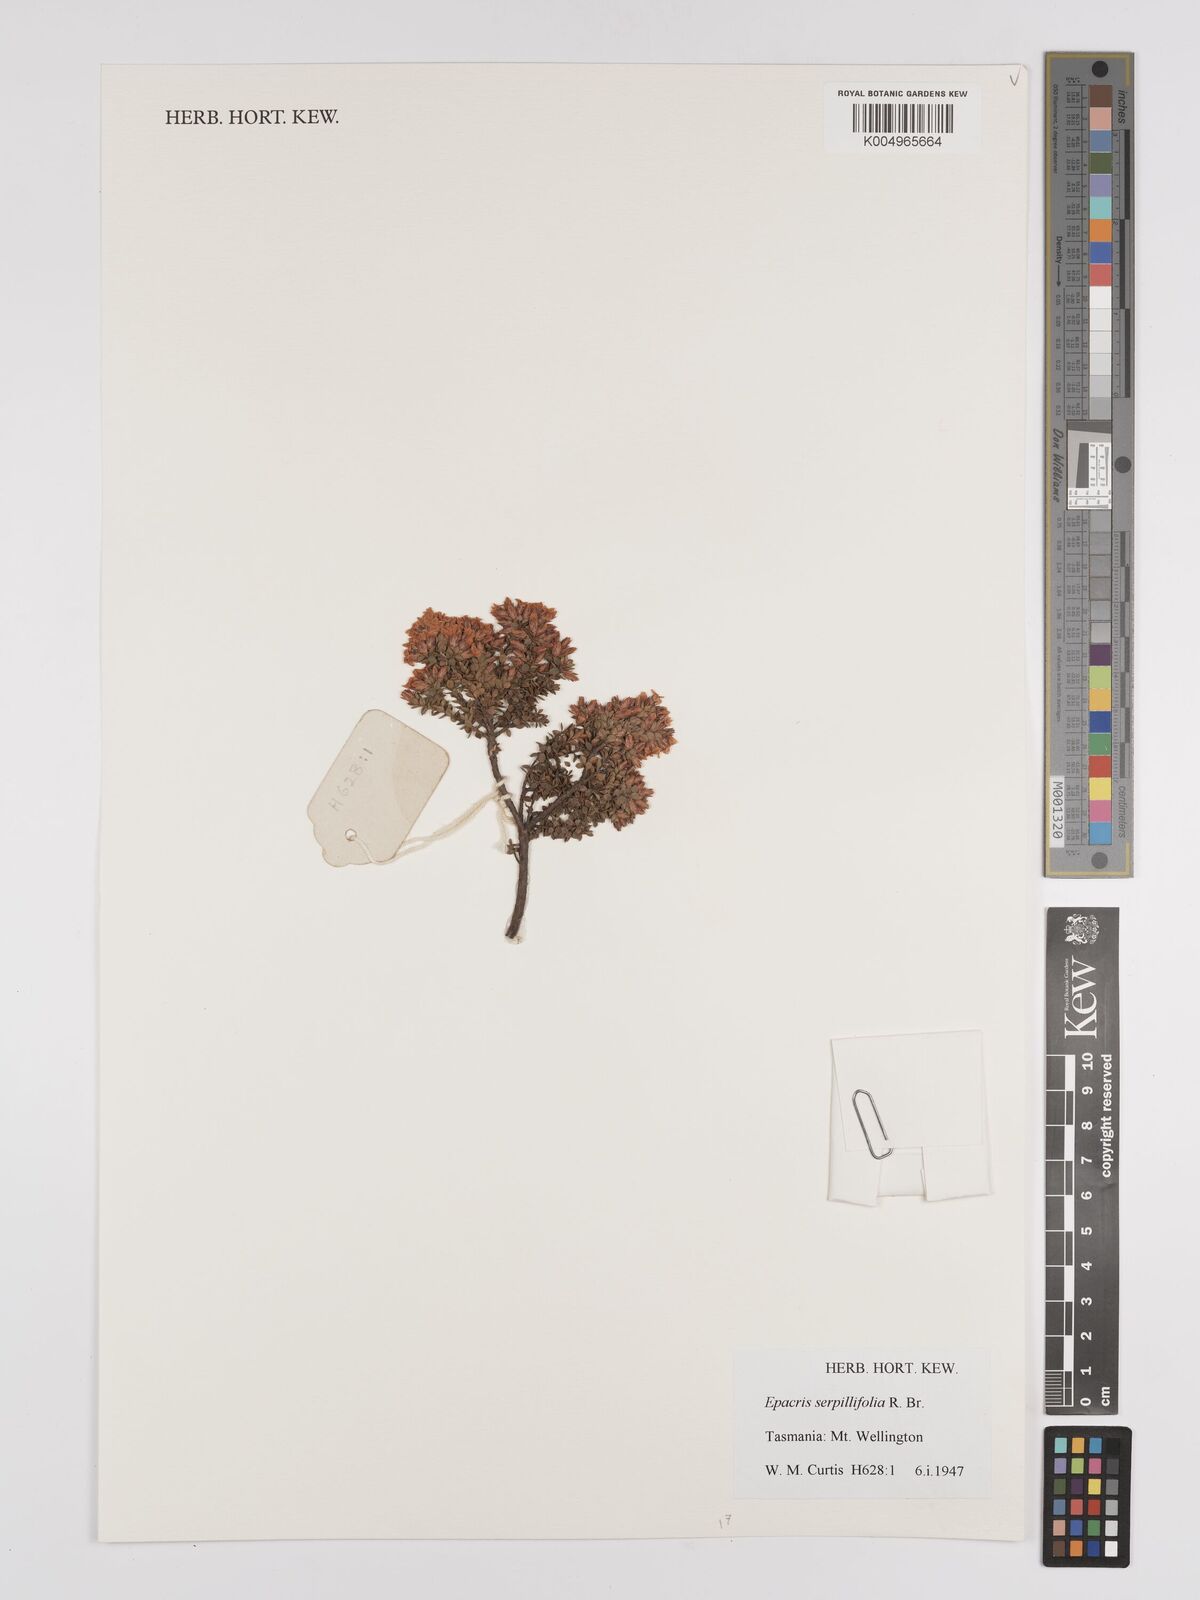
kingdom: Plantae
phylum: Tracheophyta
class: Magnoliopsida
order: Ericales
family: Ericaceae
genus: Epacris
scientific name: Epacris serpyllifolia
